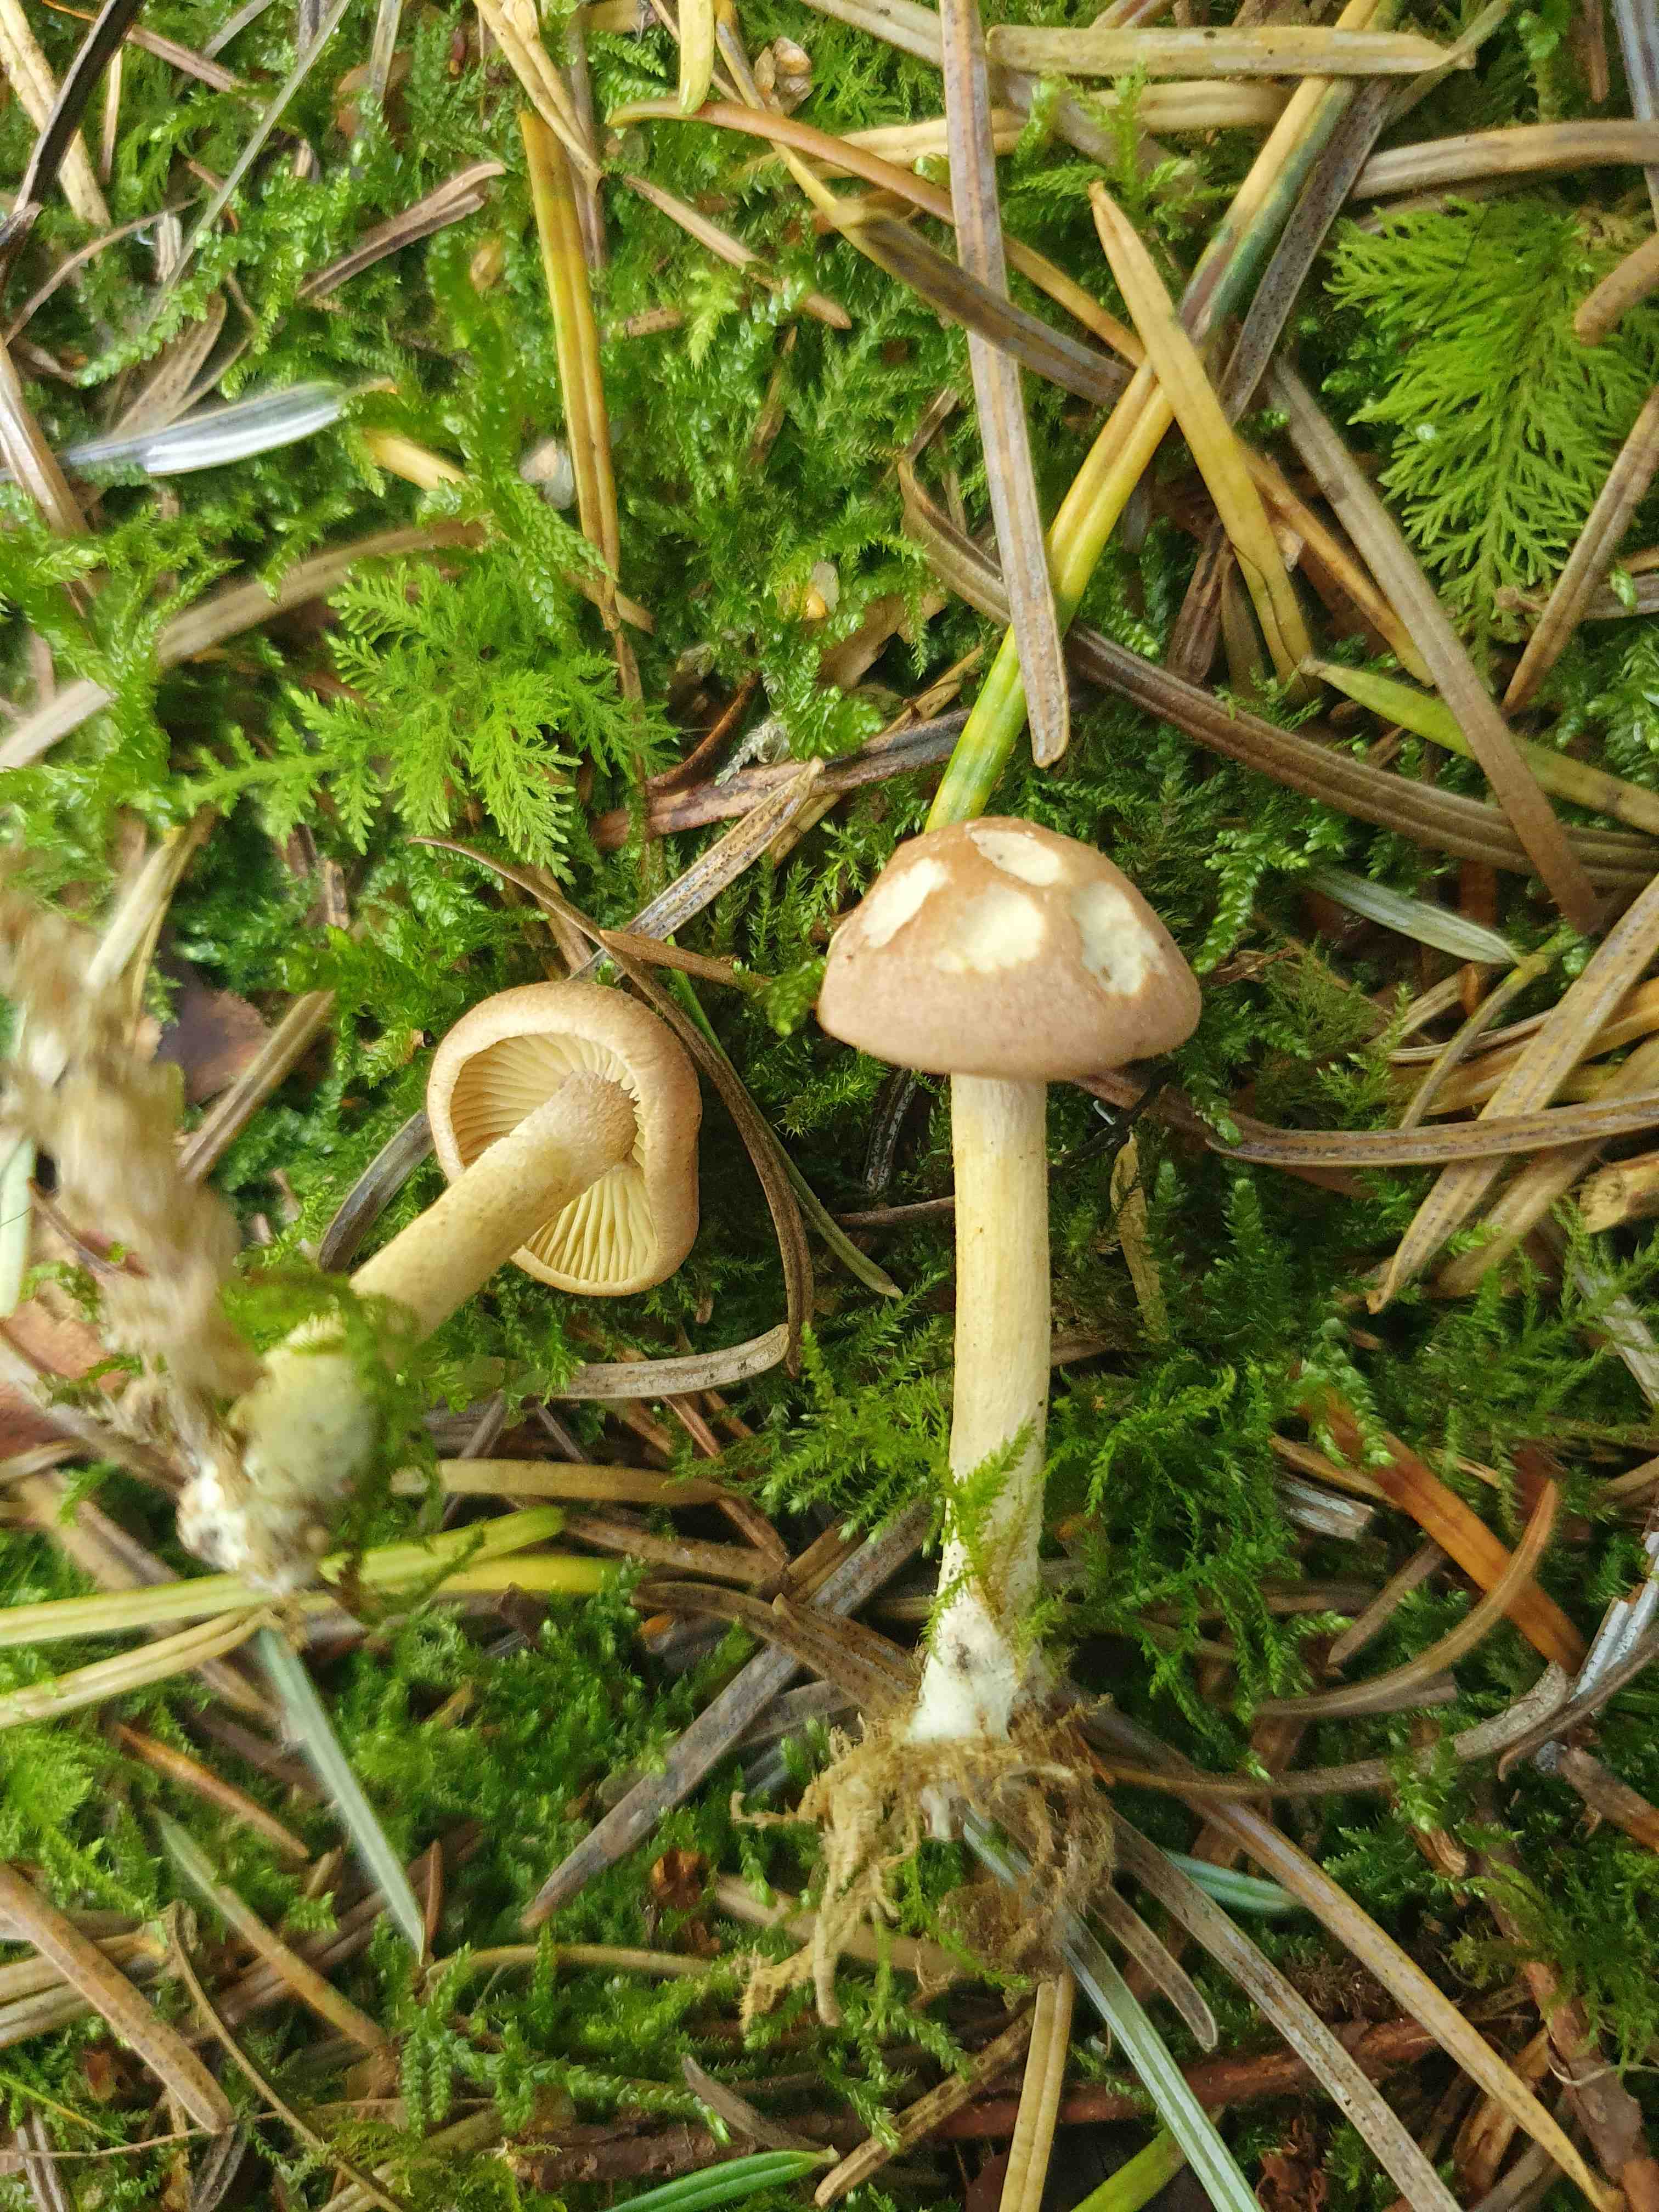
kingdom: Fungi
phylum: Basidiomycota
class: Agaricomycetes
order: Agaricales
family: Omphalotaceae
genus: Collybiopsis
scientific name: Collybiopsis peronata
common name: bestøvlet fladhat
